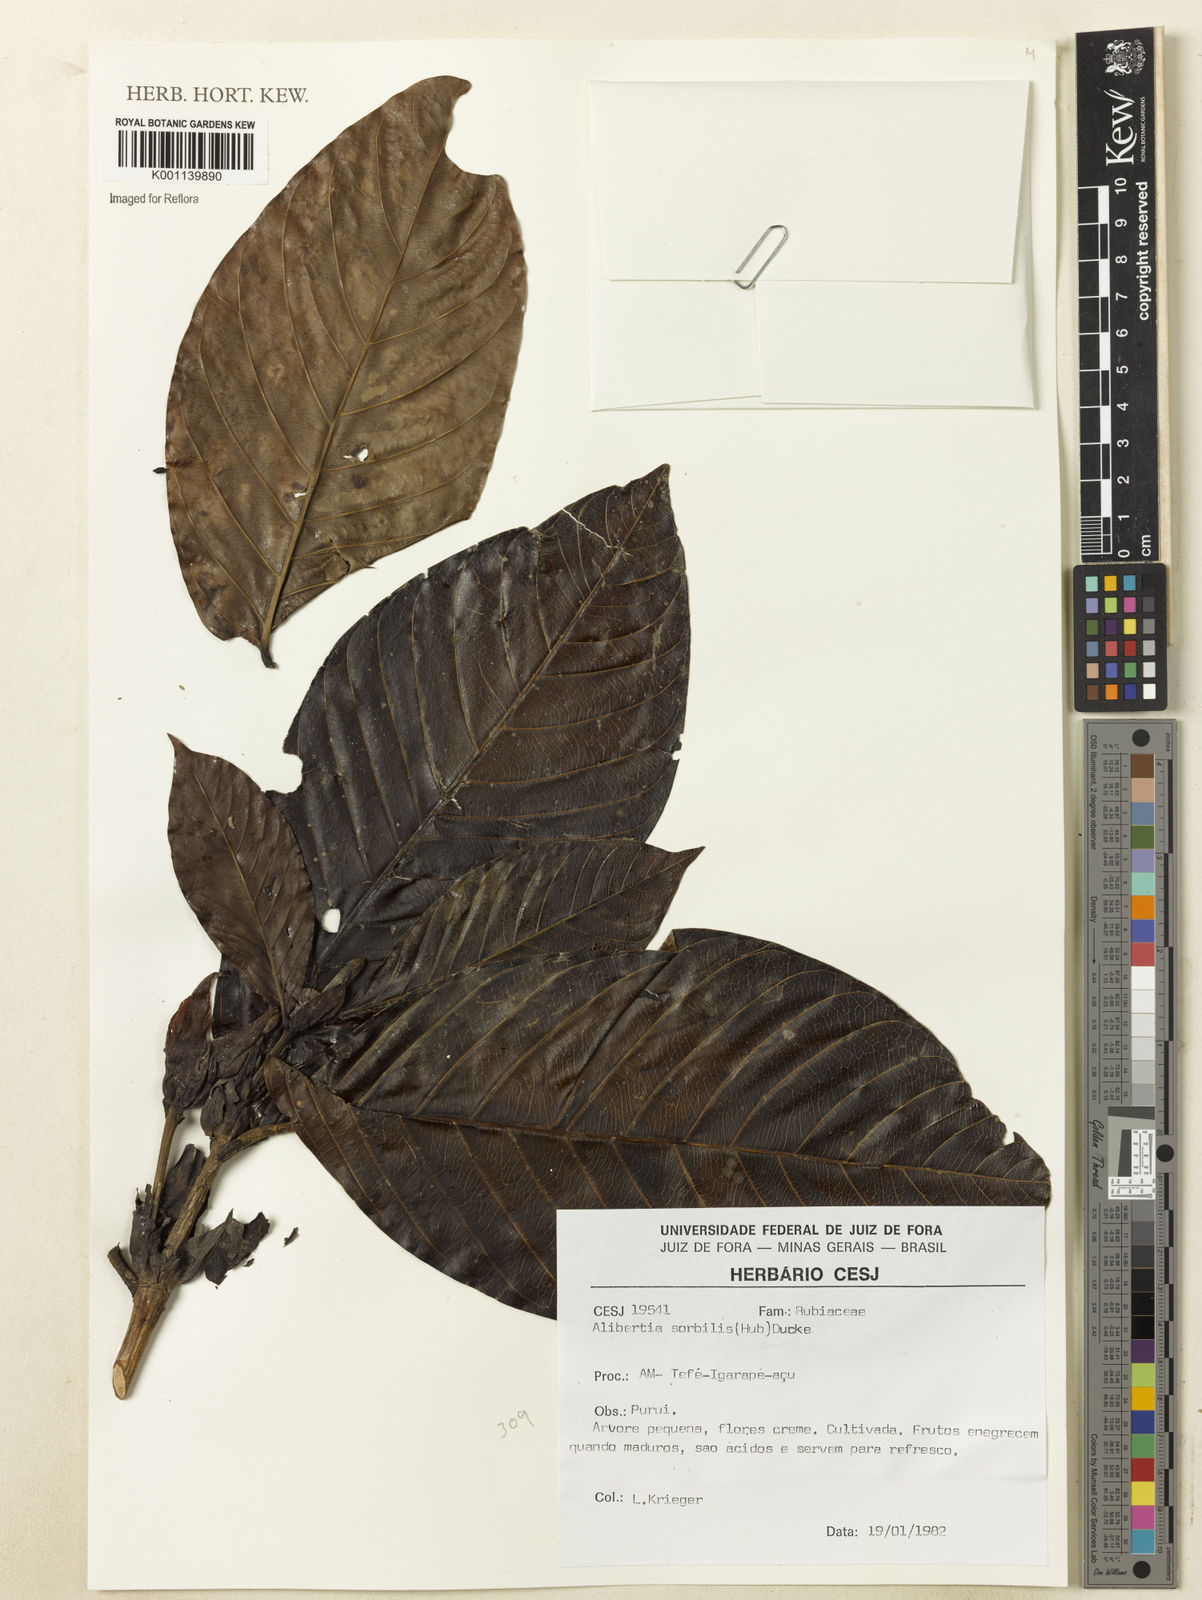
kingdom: Plantae
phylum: Tracheophyta
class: Magnoliopsida
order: Gentianales
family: Rubiaceae
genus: Alibertia
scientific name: Alibertia sorbilis
